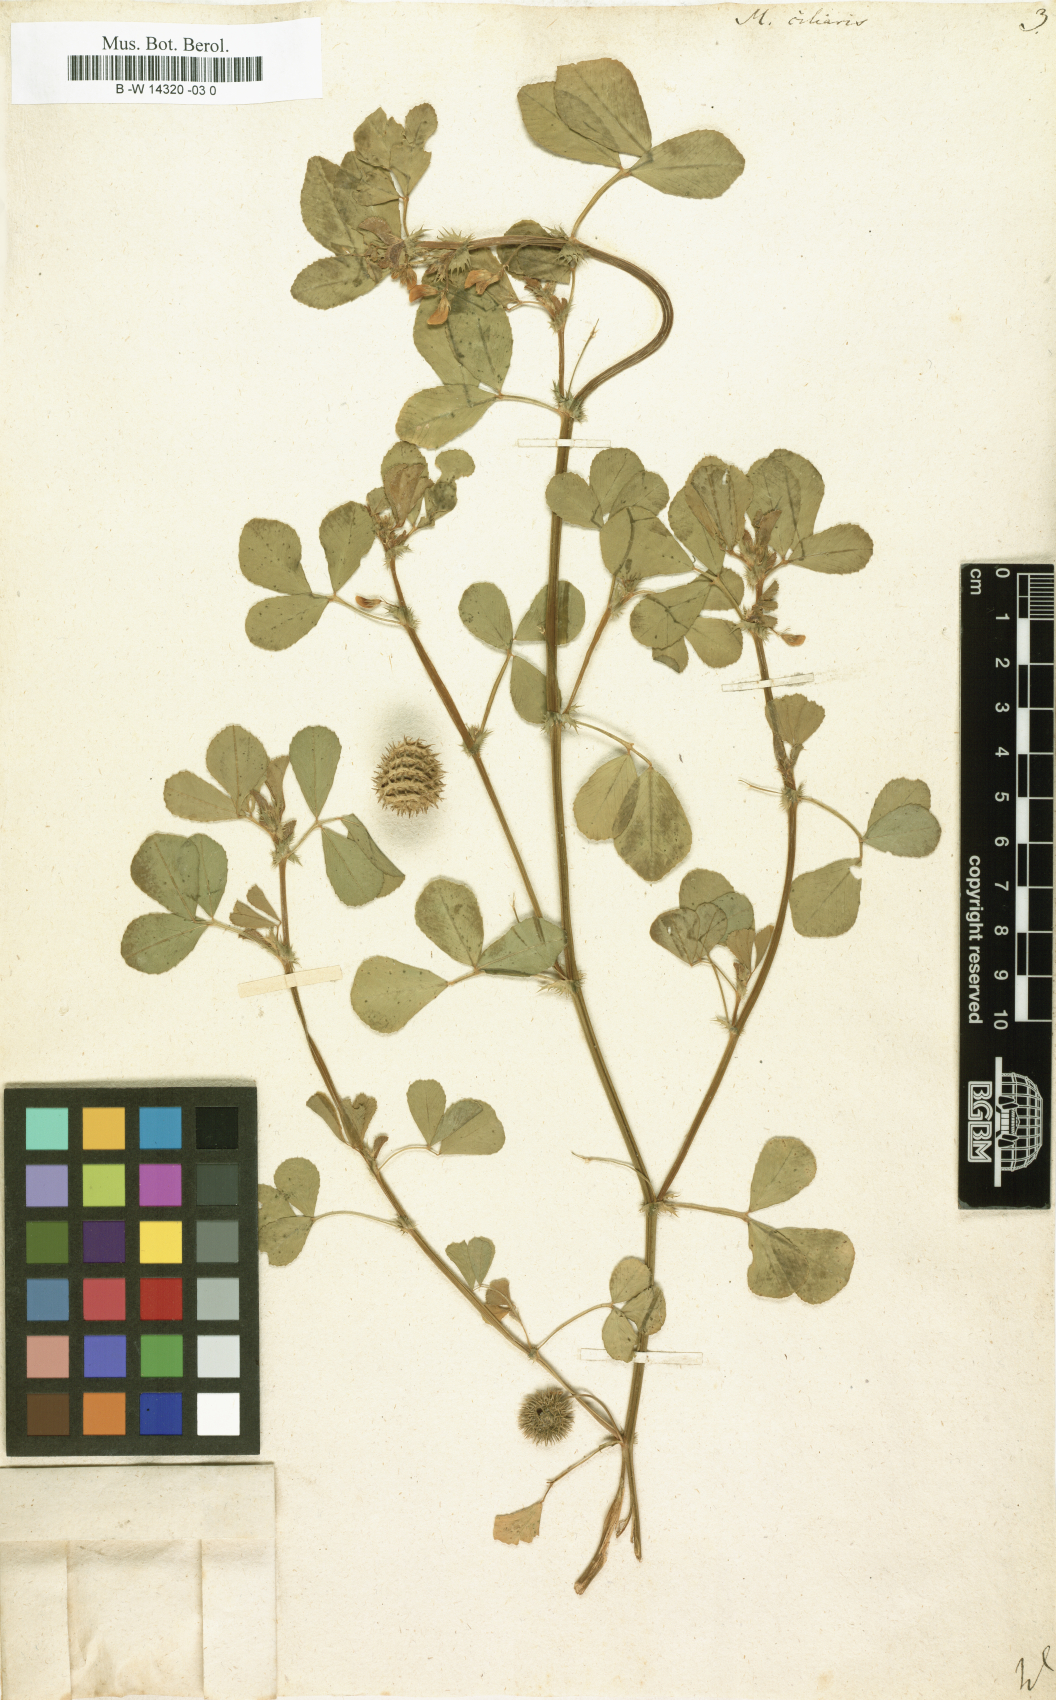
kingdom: Plantae
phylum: Tracheophyta
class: Magnoliopsida
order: Fabales
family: Fabaceae
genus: Medicago
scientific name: Medicago ciliaris
